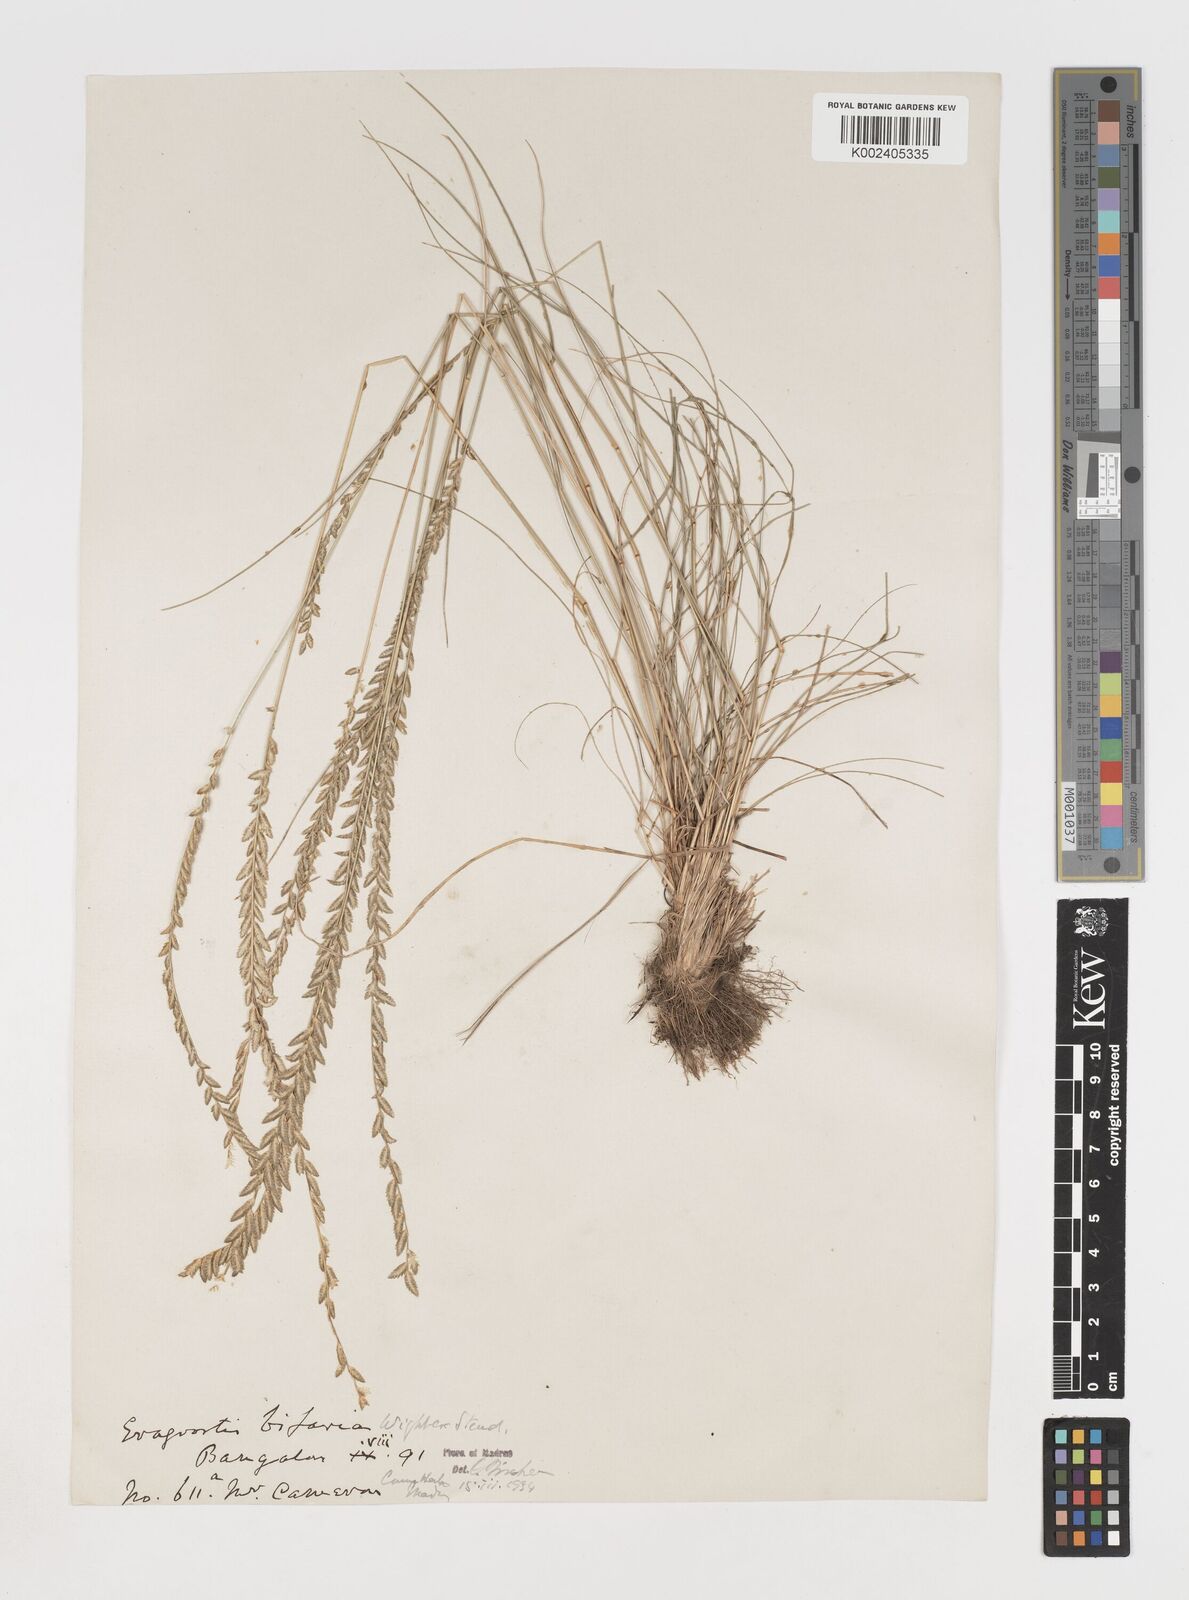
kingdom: Plantae
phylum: Tracheophyta
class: Liliopsida
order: Poales
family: Poaceae
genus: Eragrostiella
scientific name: Eragrostiella bifaria
